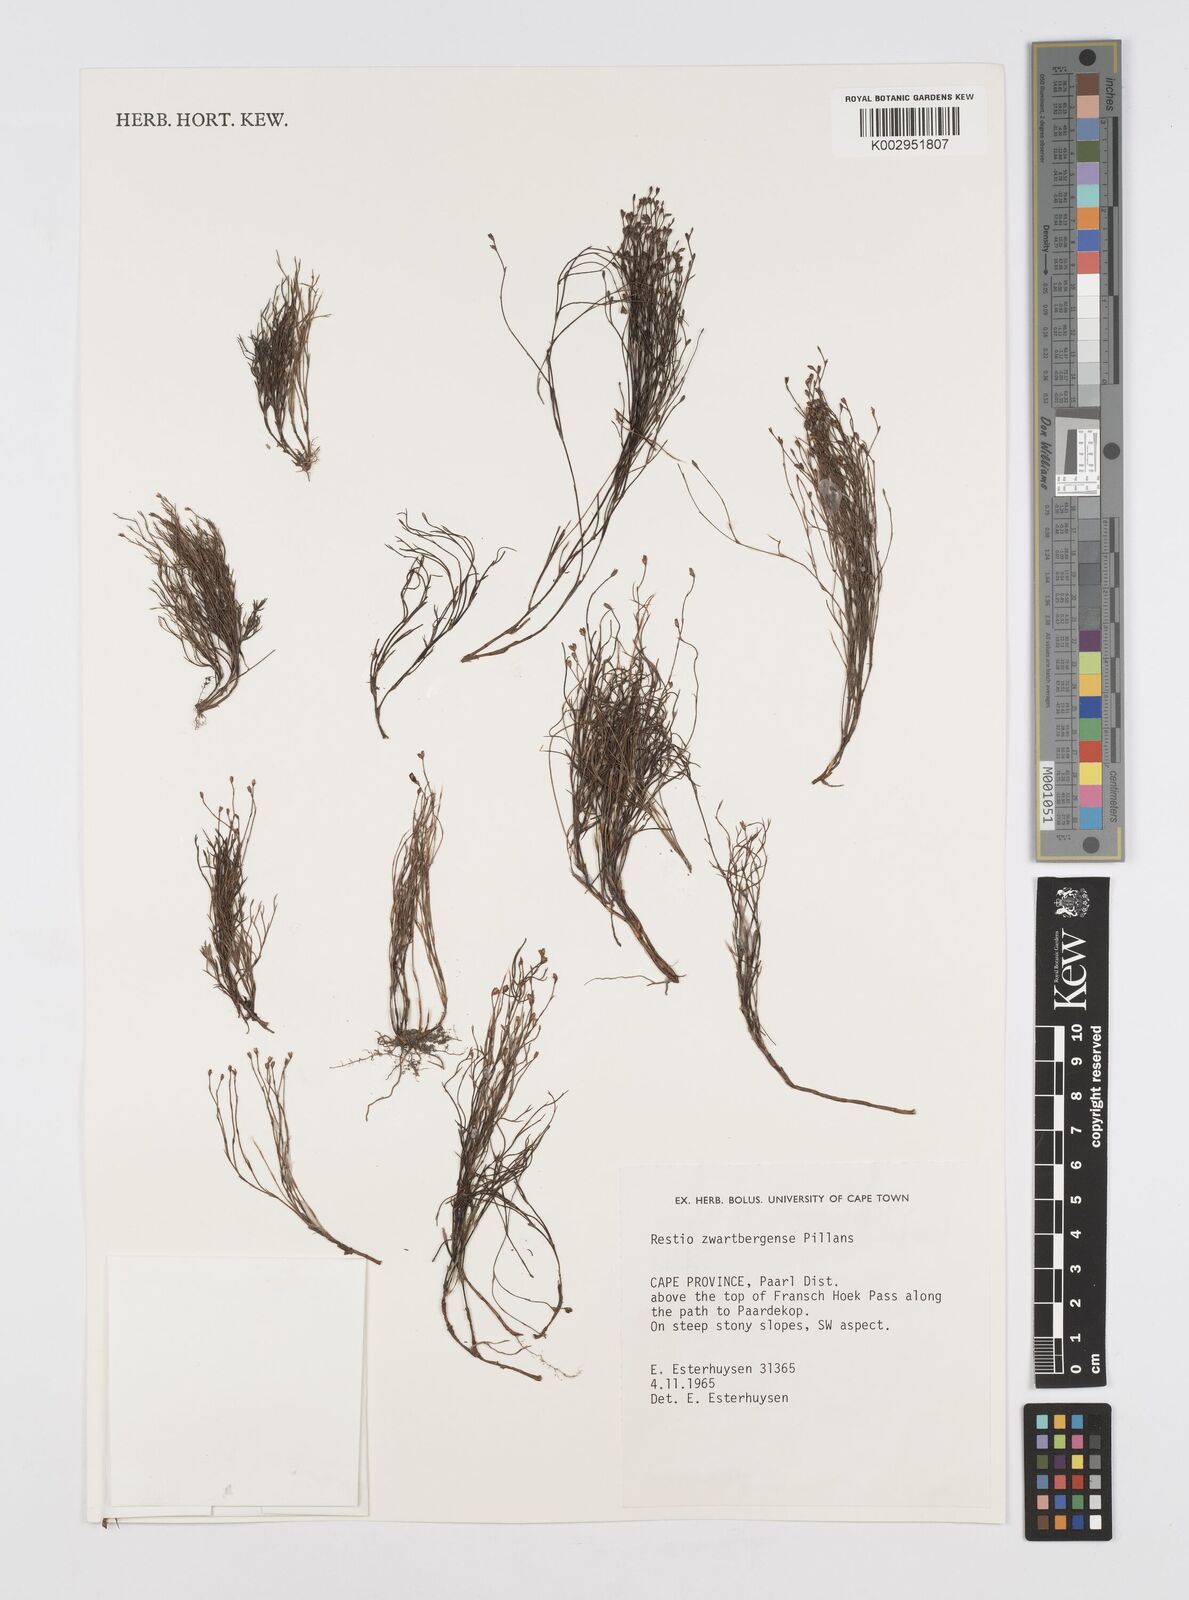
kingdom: Plantae
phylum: Tracheophyta
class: Liliopsida
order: Poales
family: Restionaceae
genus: Restio
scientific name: Restio zwartbergensis
